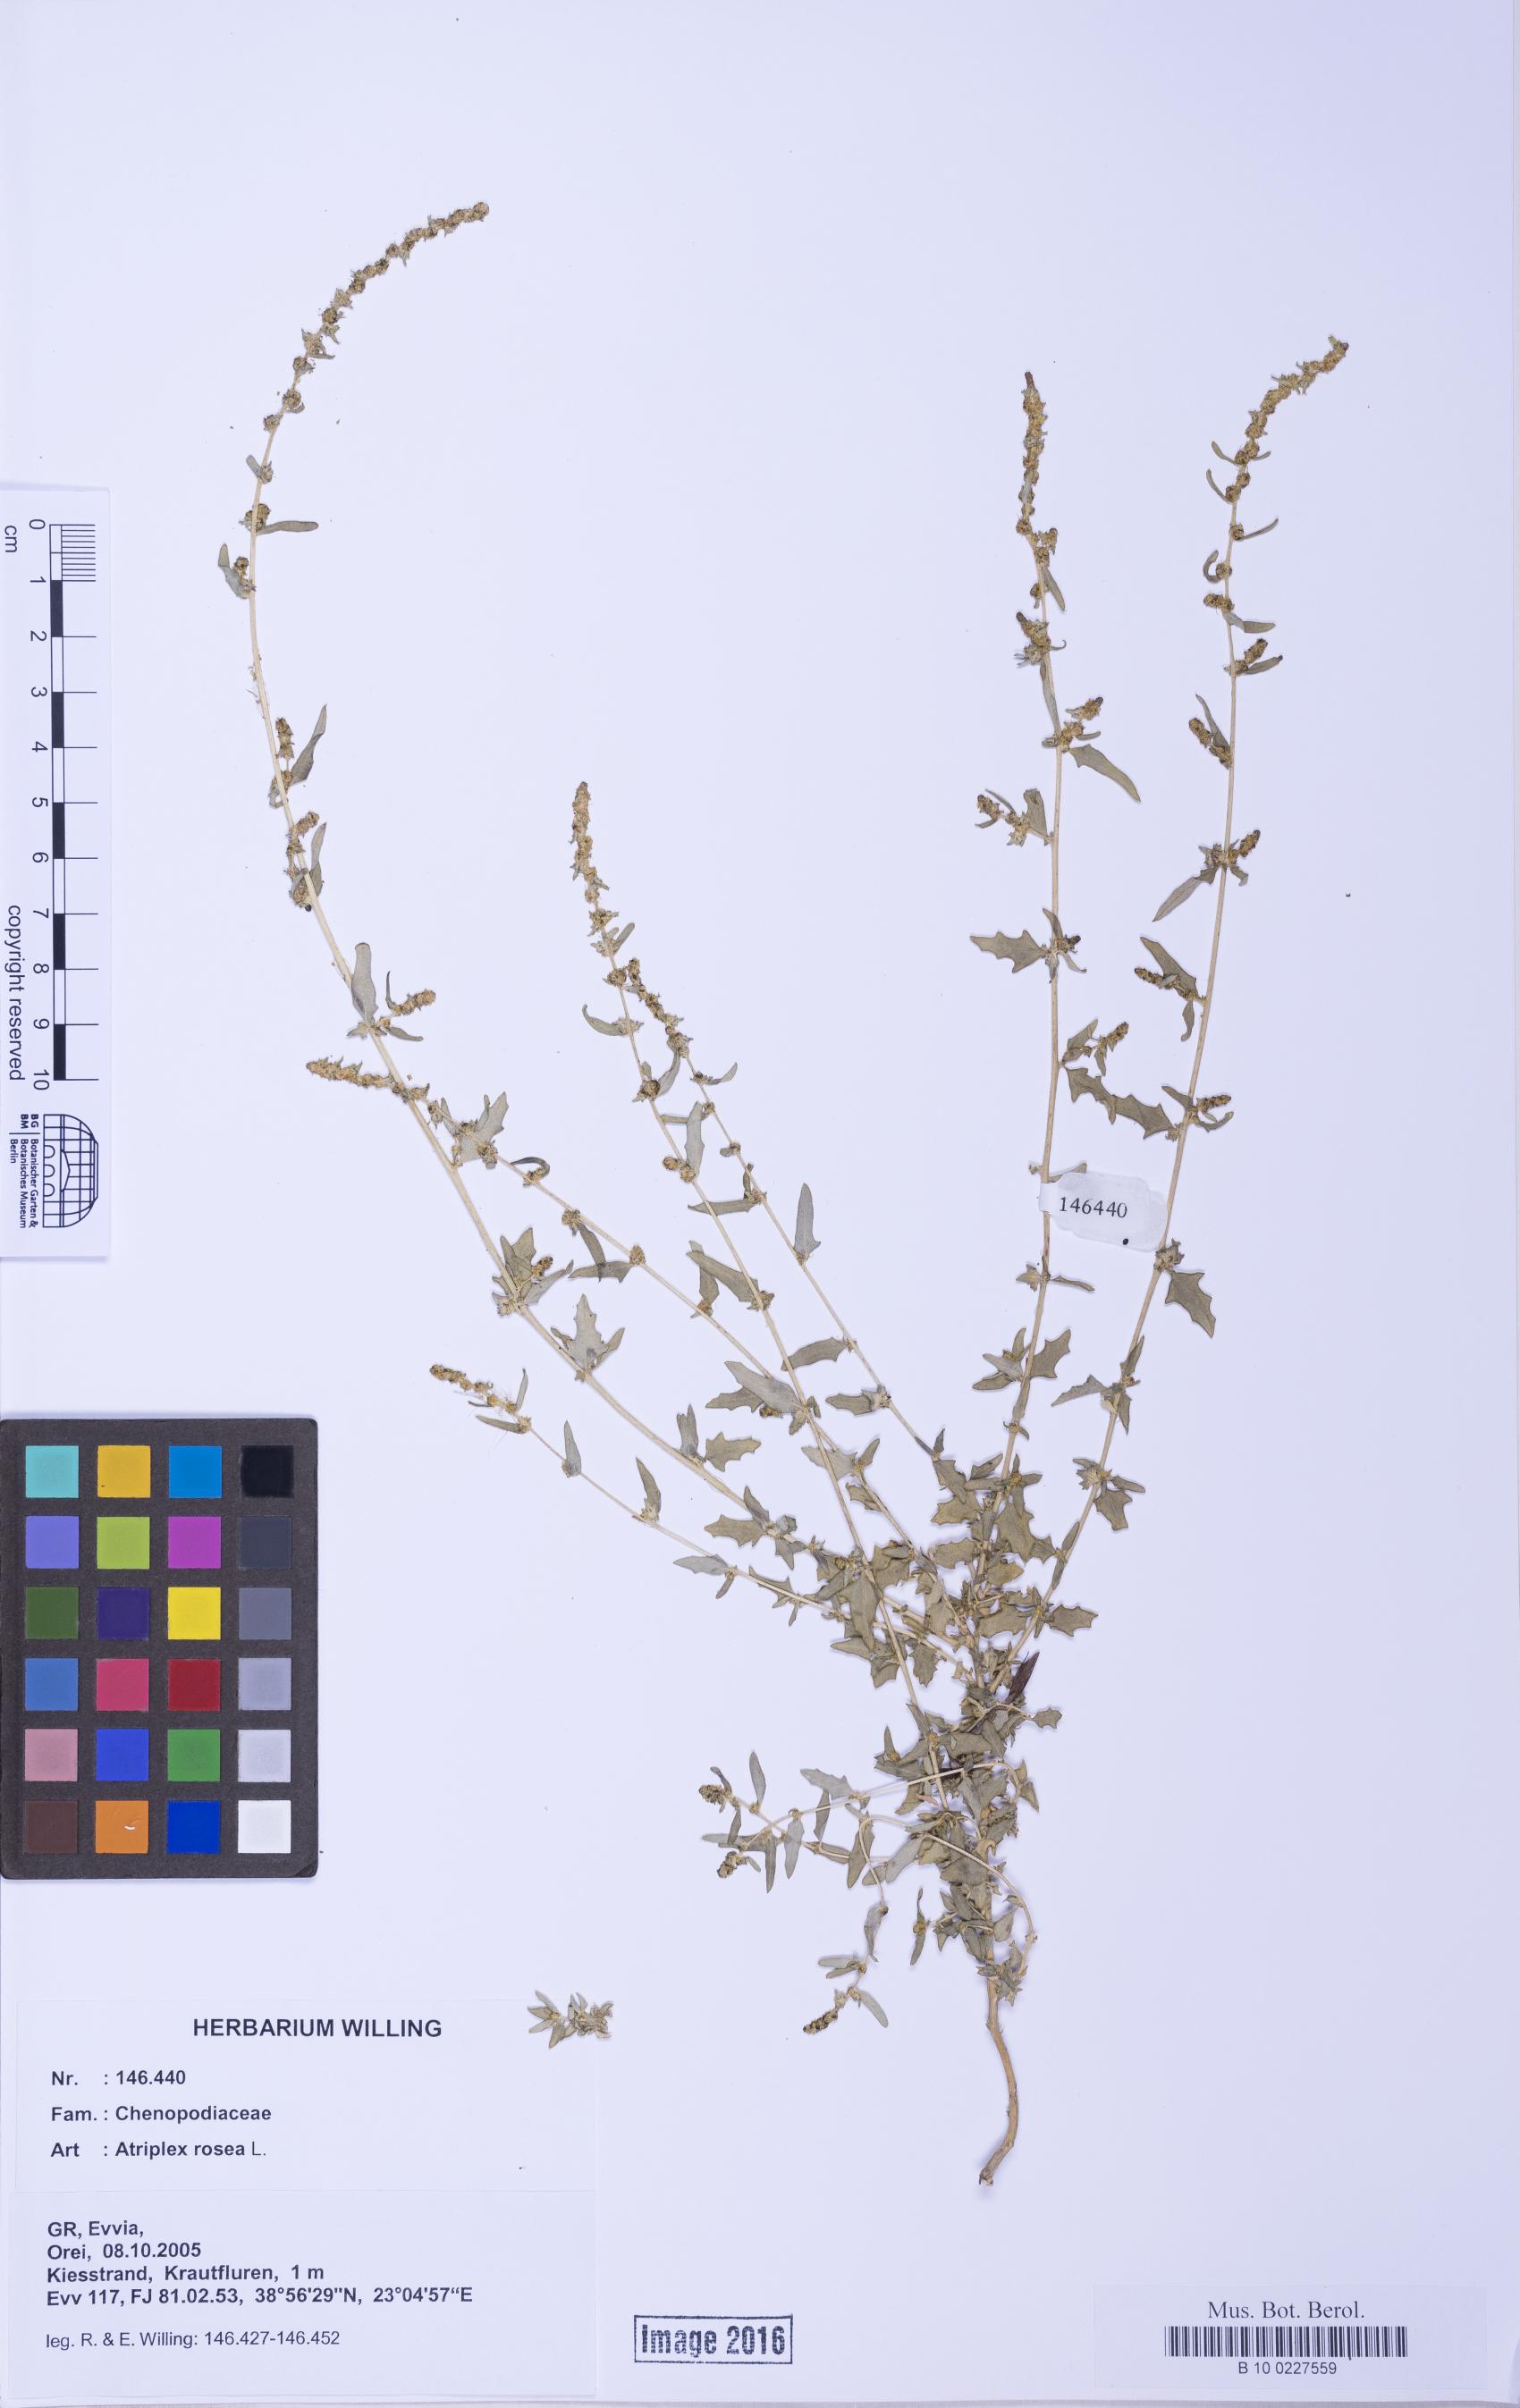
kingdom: Plantae
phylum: Tracheophyta
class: Magnoliopsida
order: Caryophyllales
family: Amaranthaceae
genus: Atriplex
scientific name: Atriplex tatarica
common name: Tatarian orache
